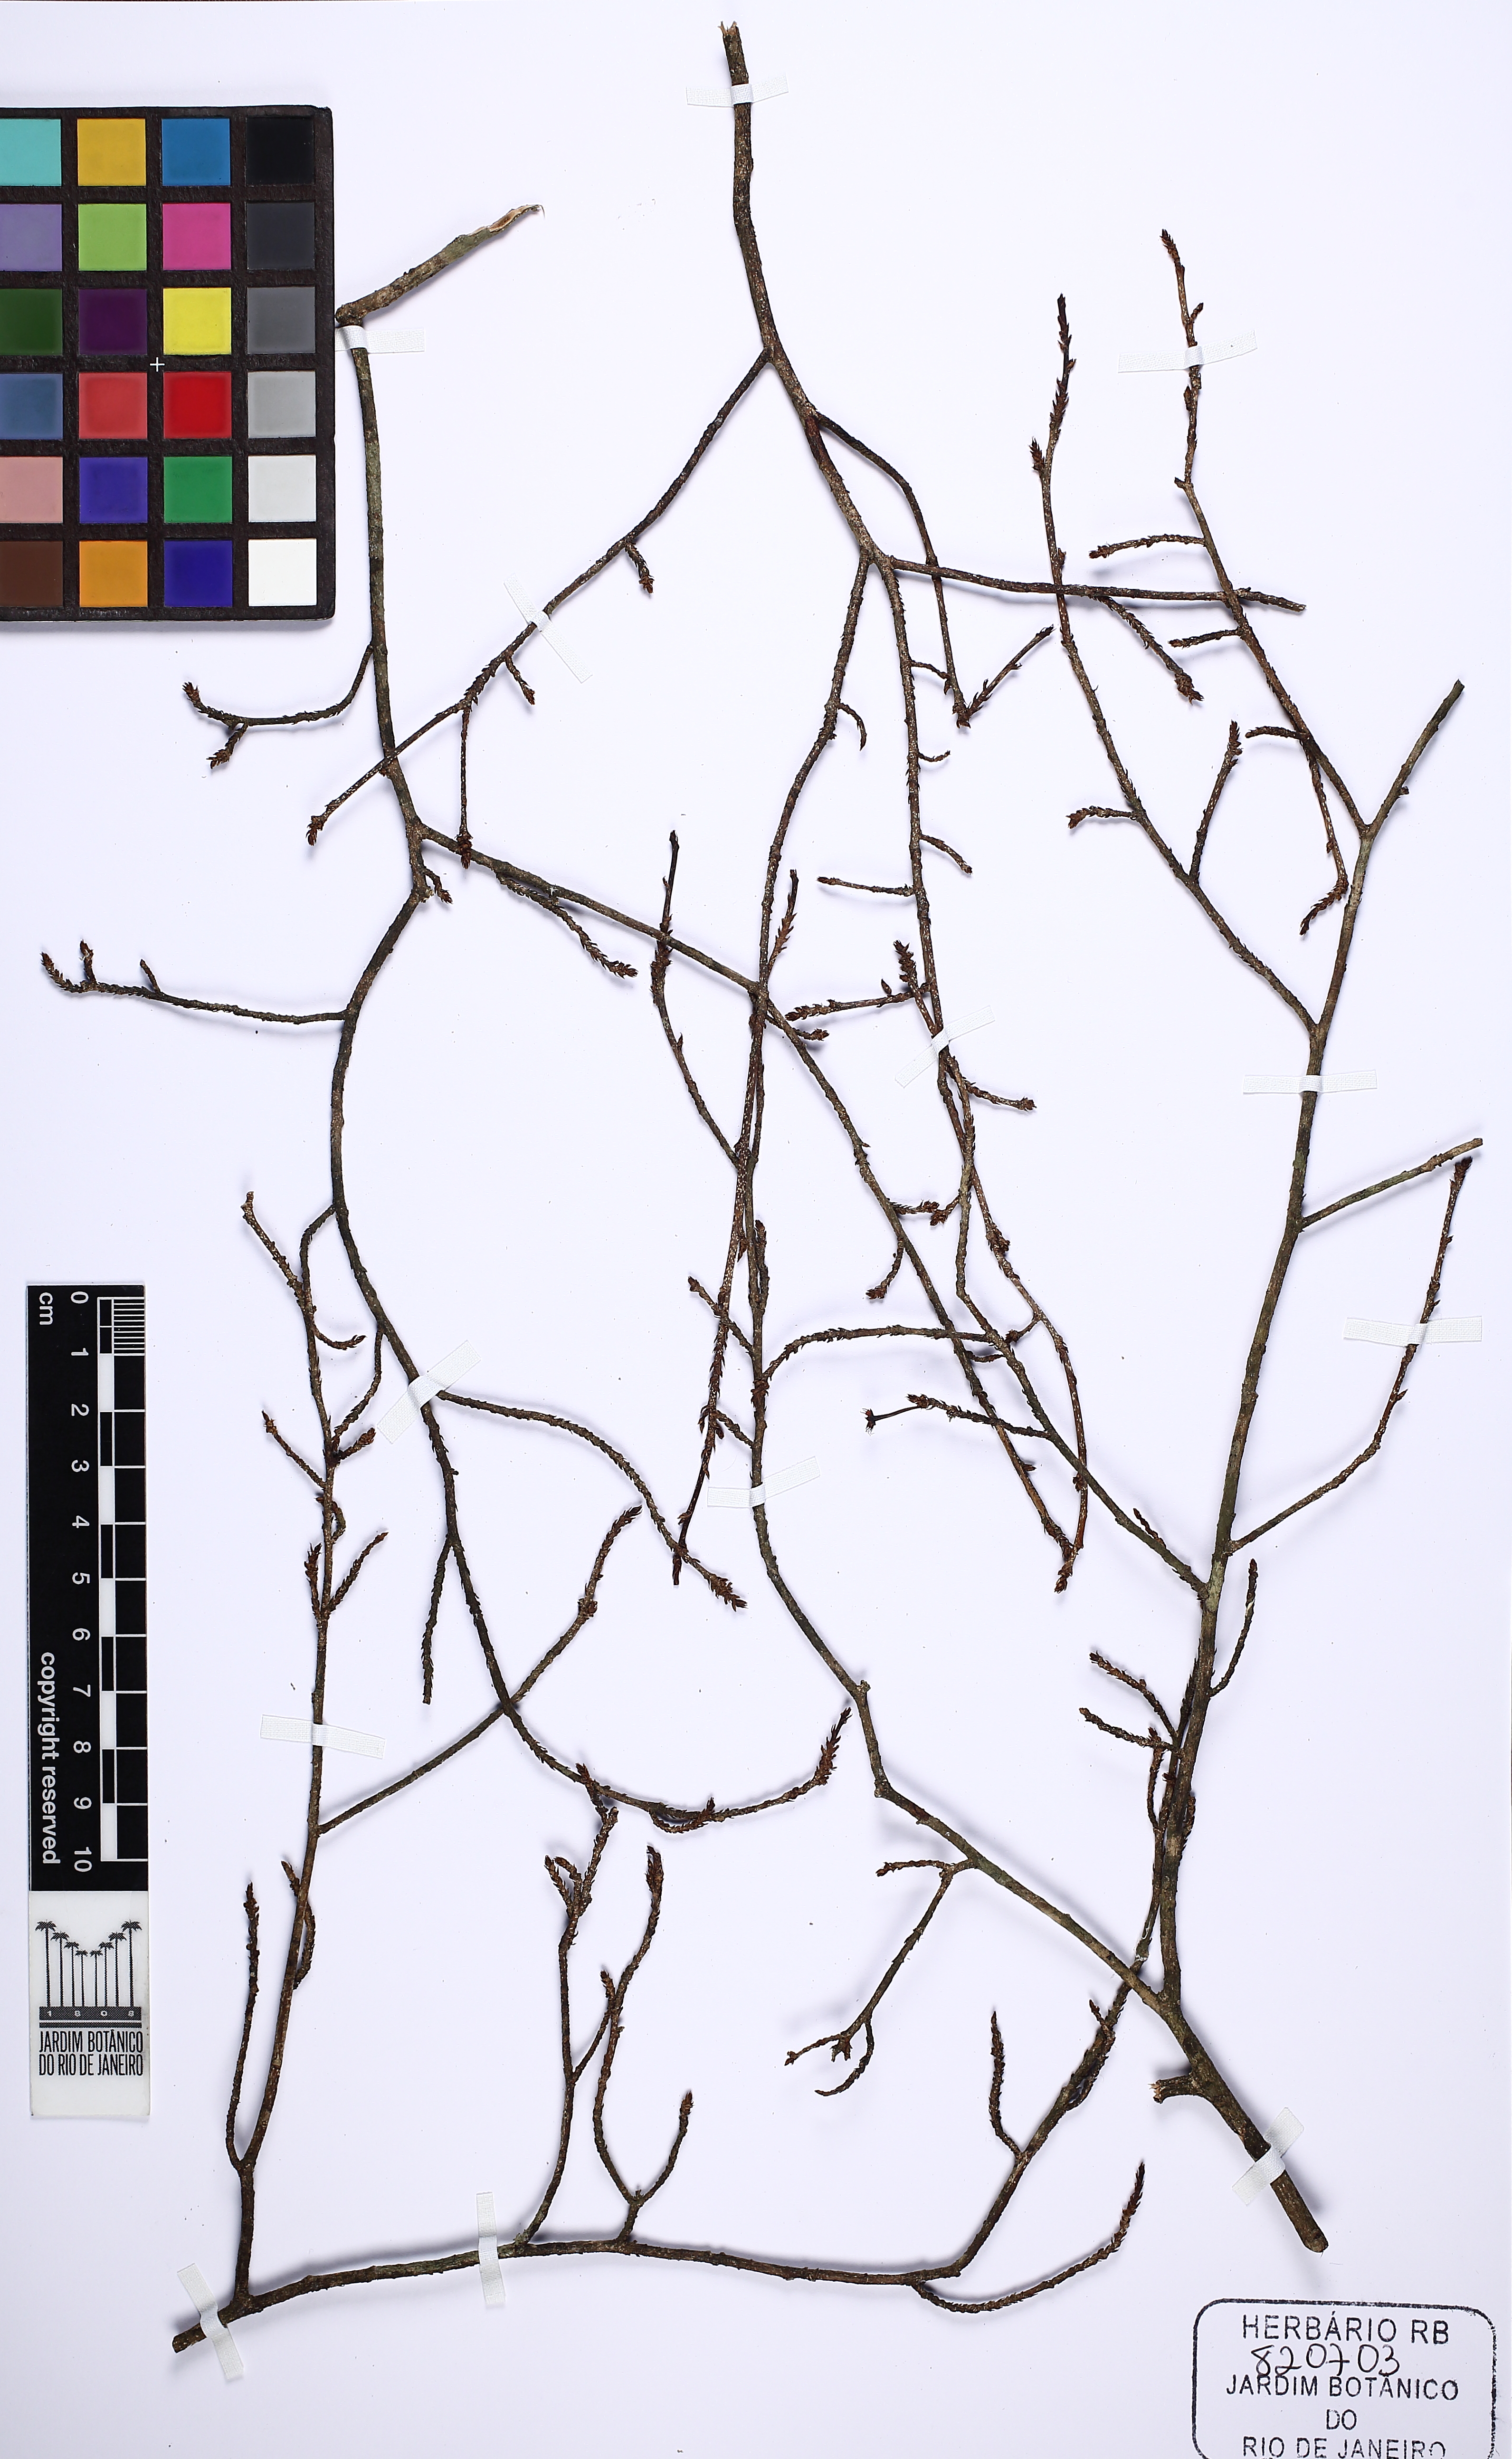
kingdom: Plantae
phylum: Tracheophyta
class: Magnoliopsida
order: Malpighiales
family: Erythroxylaceae
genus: Erythroxylum
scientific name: Erythroxylum
